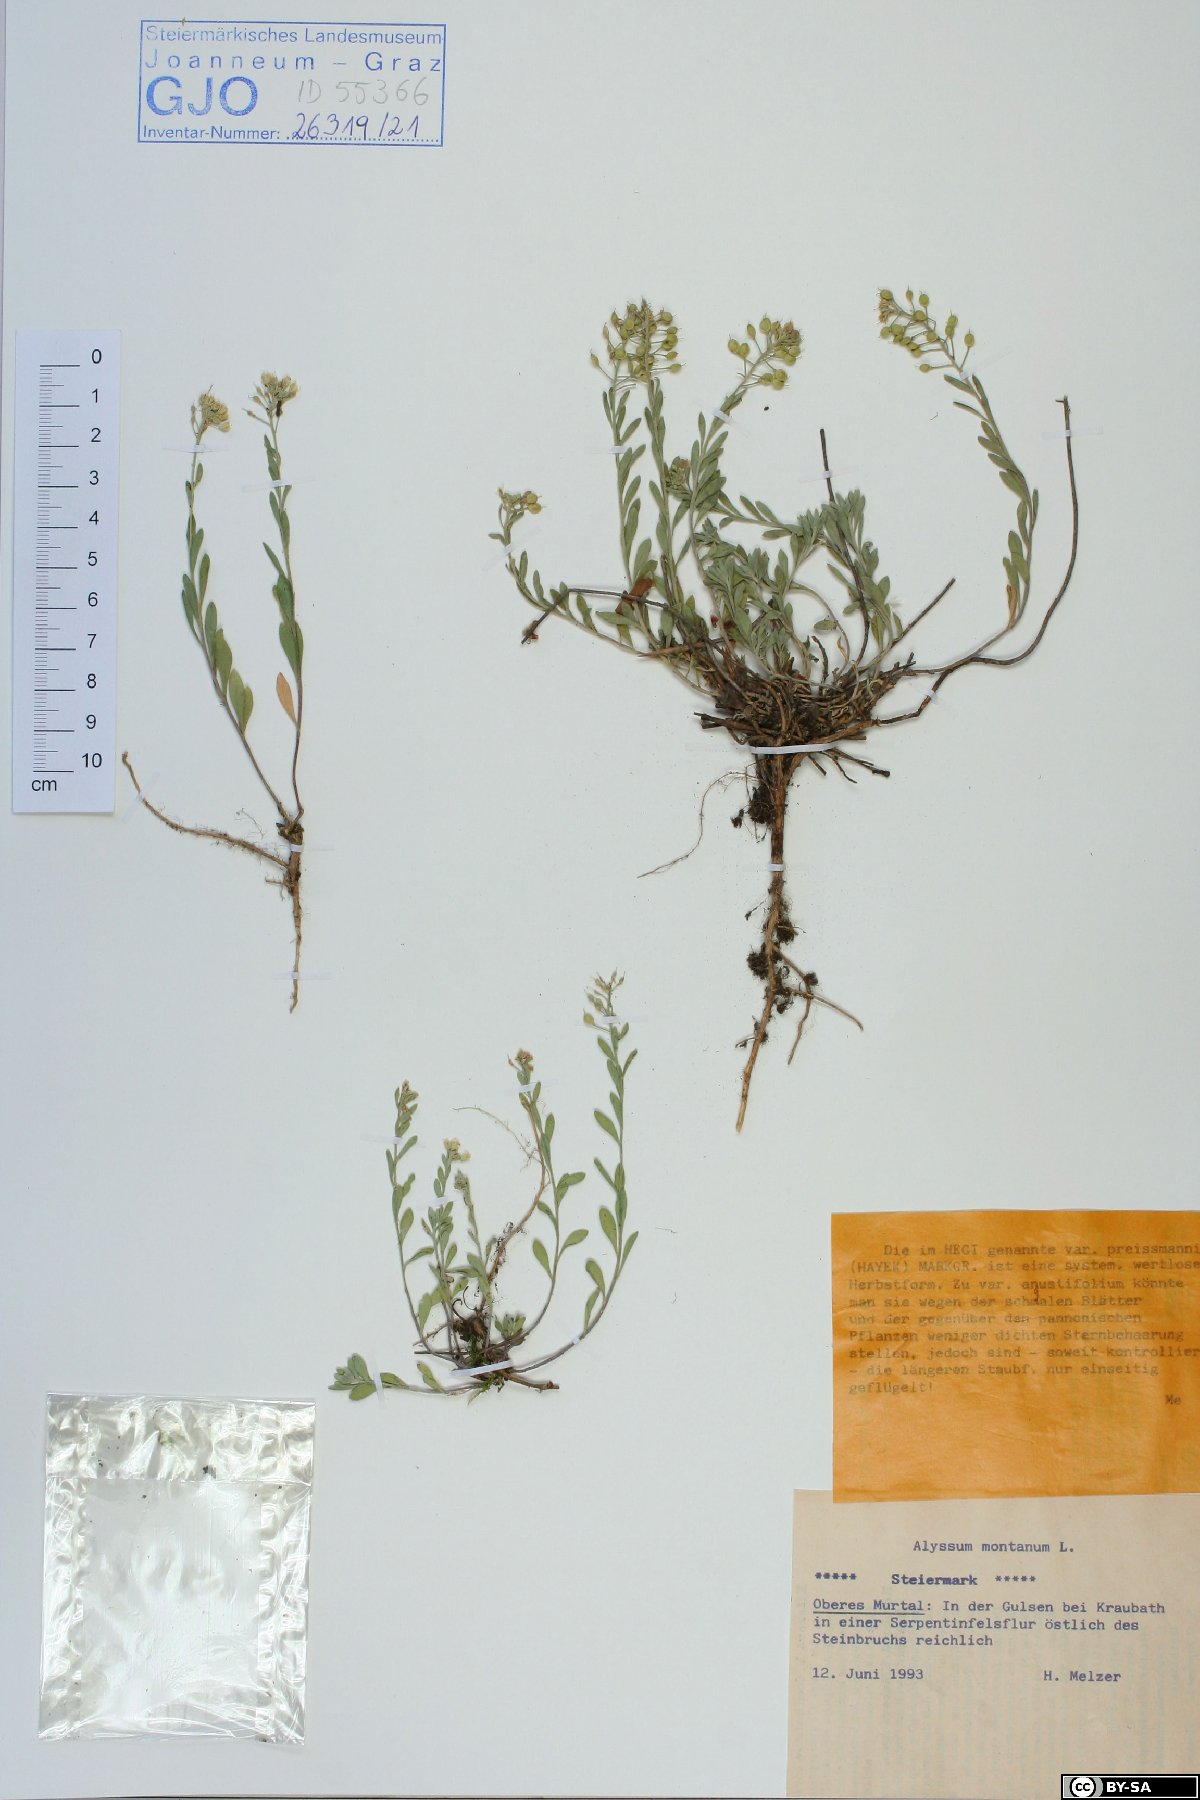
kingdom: Plantae
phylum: Tracheophyta
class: Magnoliopsida
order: Brassicales
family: Brassicaceae
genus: Alyssum
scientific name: Alyssum montanum
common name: Mountain alison
